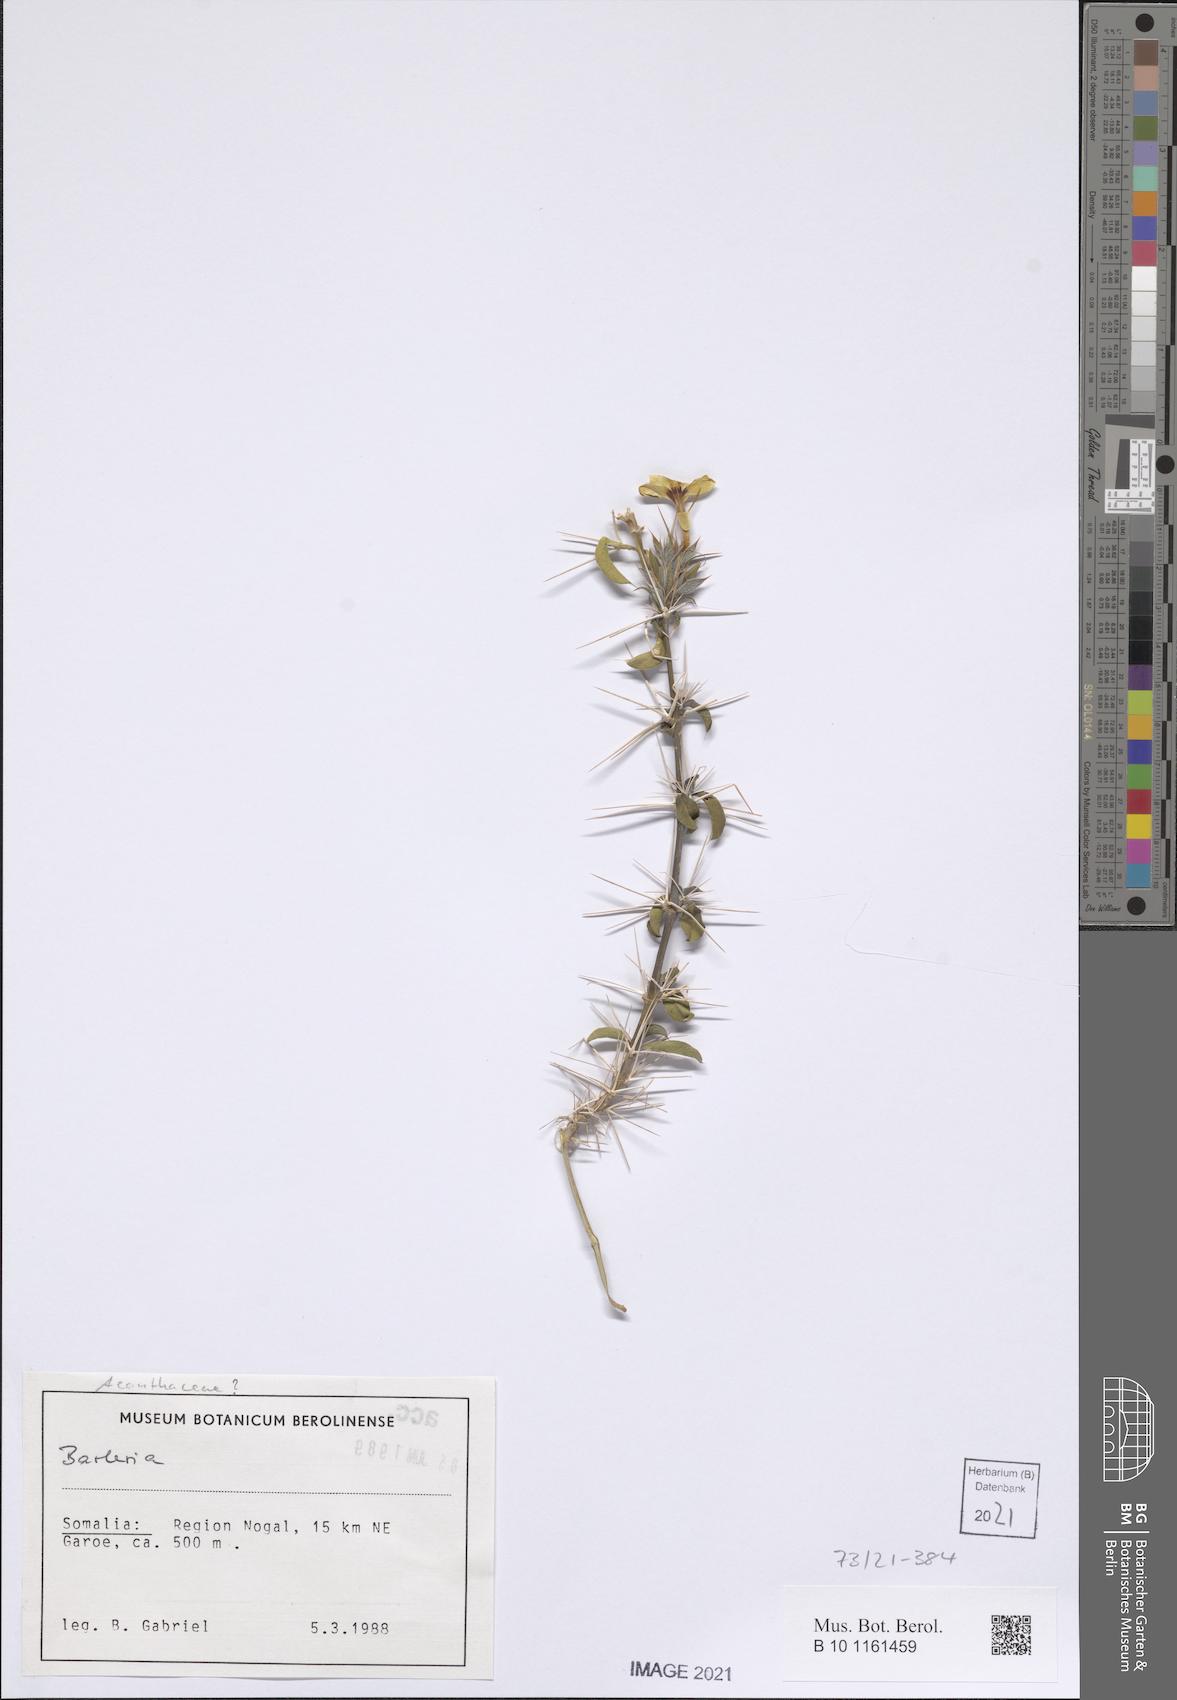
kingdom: Plantae
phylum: Tracheophyta
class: Magnoliopsida
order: Lamiales
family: Acanthaceae
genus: Barleria
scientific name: Barleria proxima
